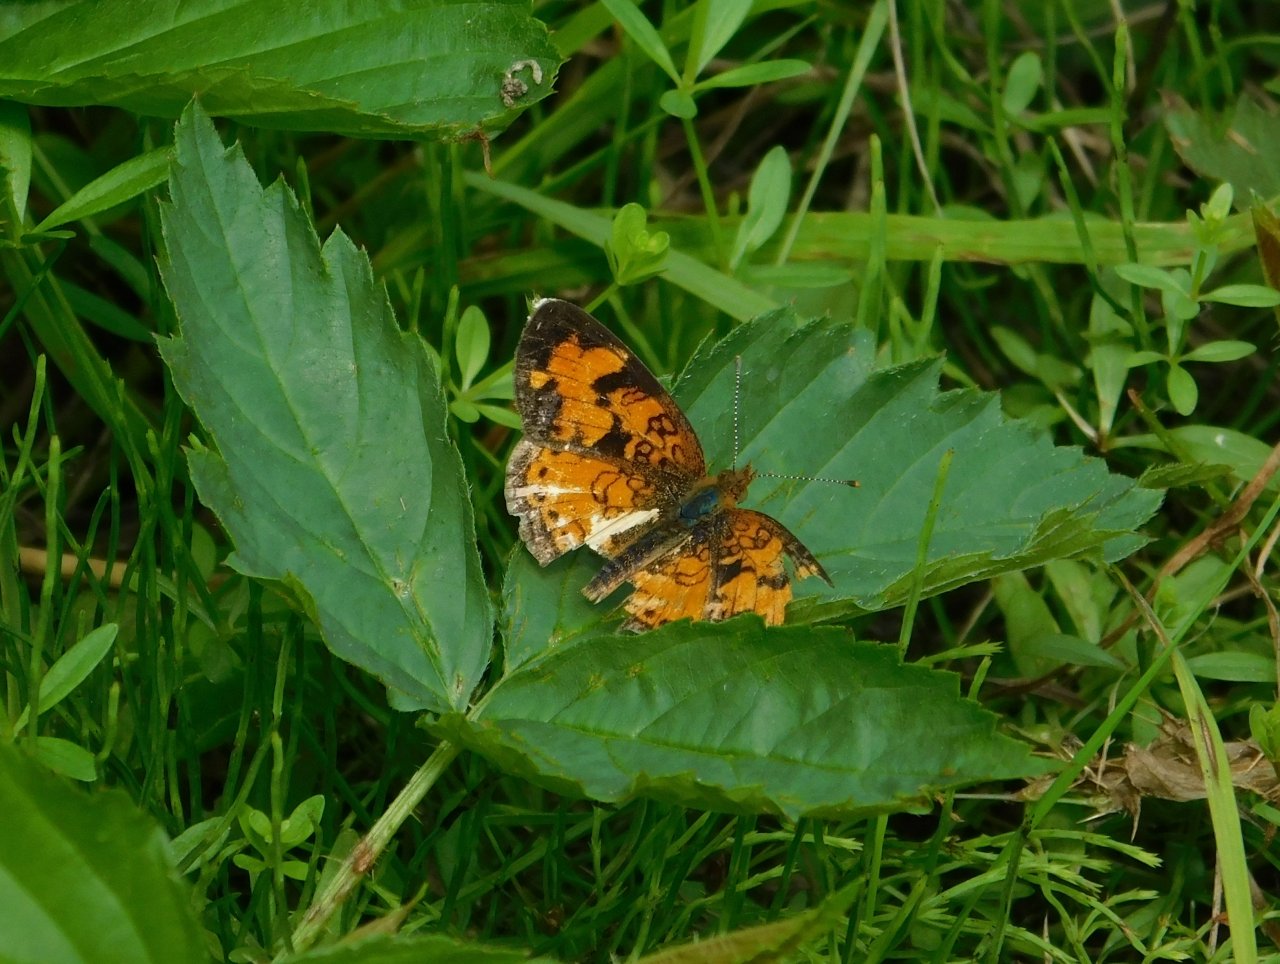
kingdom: Animalia
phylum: Arthropoda
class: Insecta
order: Lepidoptera
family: Nymphalidae
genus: Phyciodes
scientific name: Phyciodes tharos
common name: Northern Crescent
